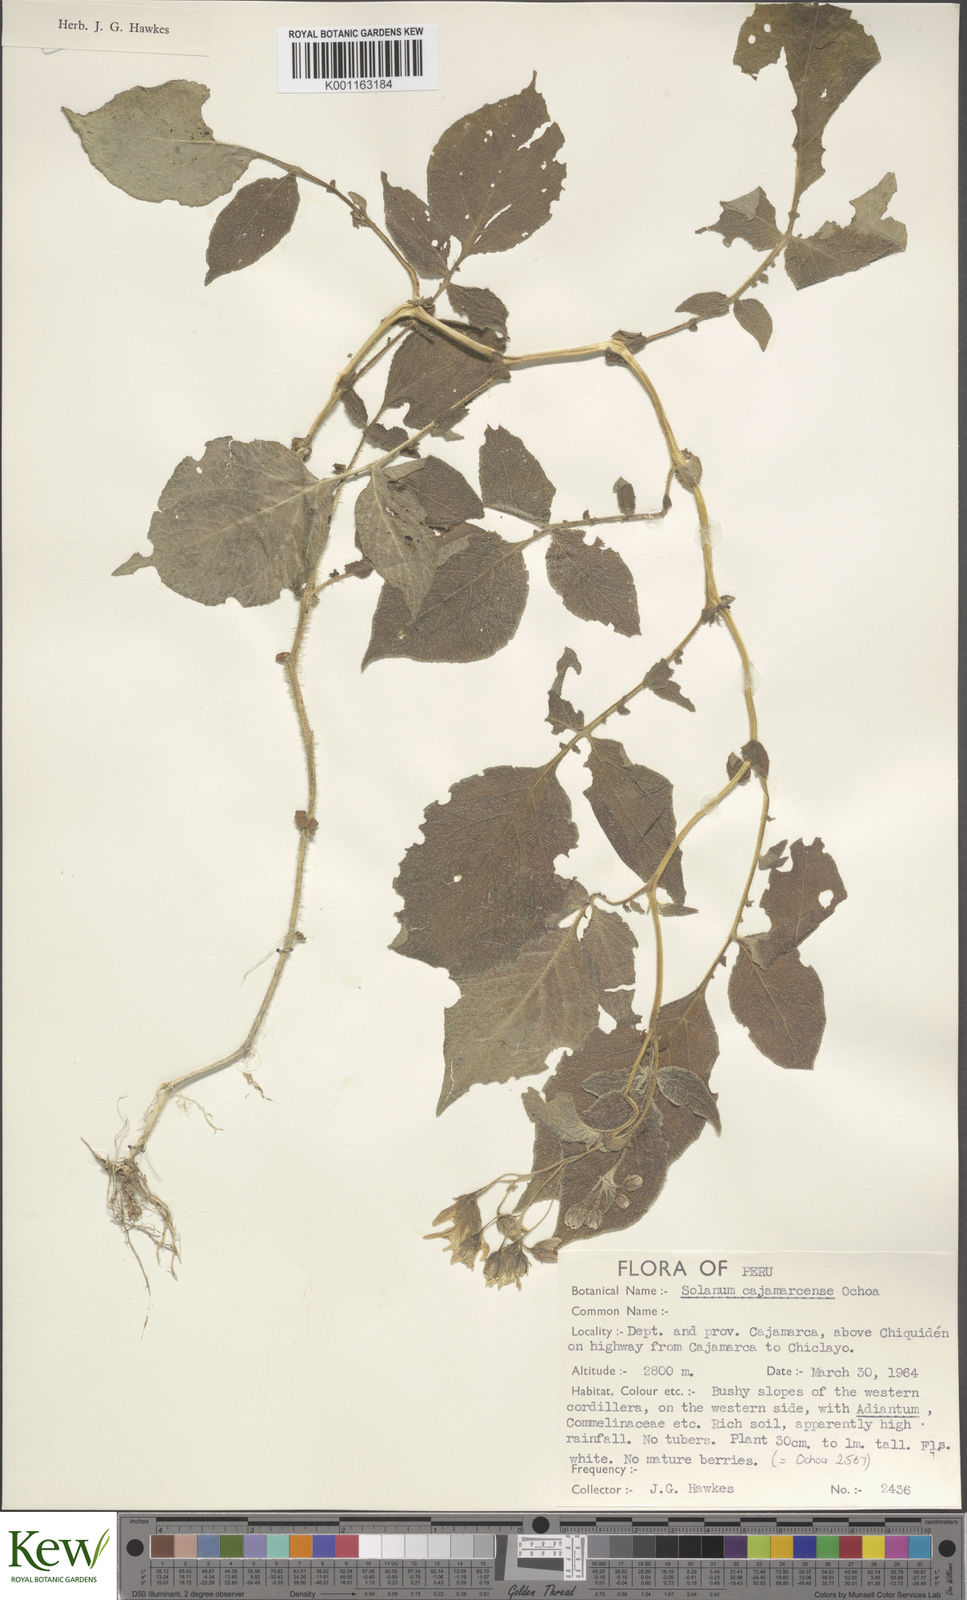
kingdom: Plantae
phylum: Tracheophyta
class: Magnoliopsida
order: Solanales
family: Solanaceae
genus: Solanum
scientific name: Solanum cajamarquense
